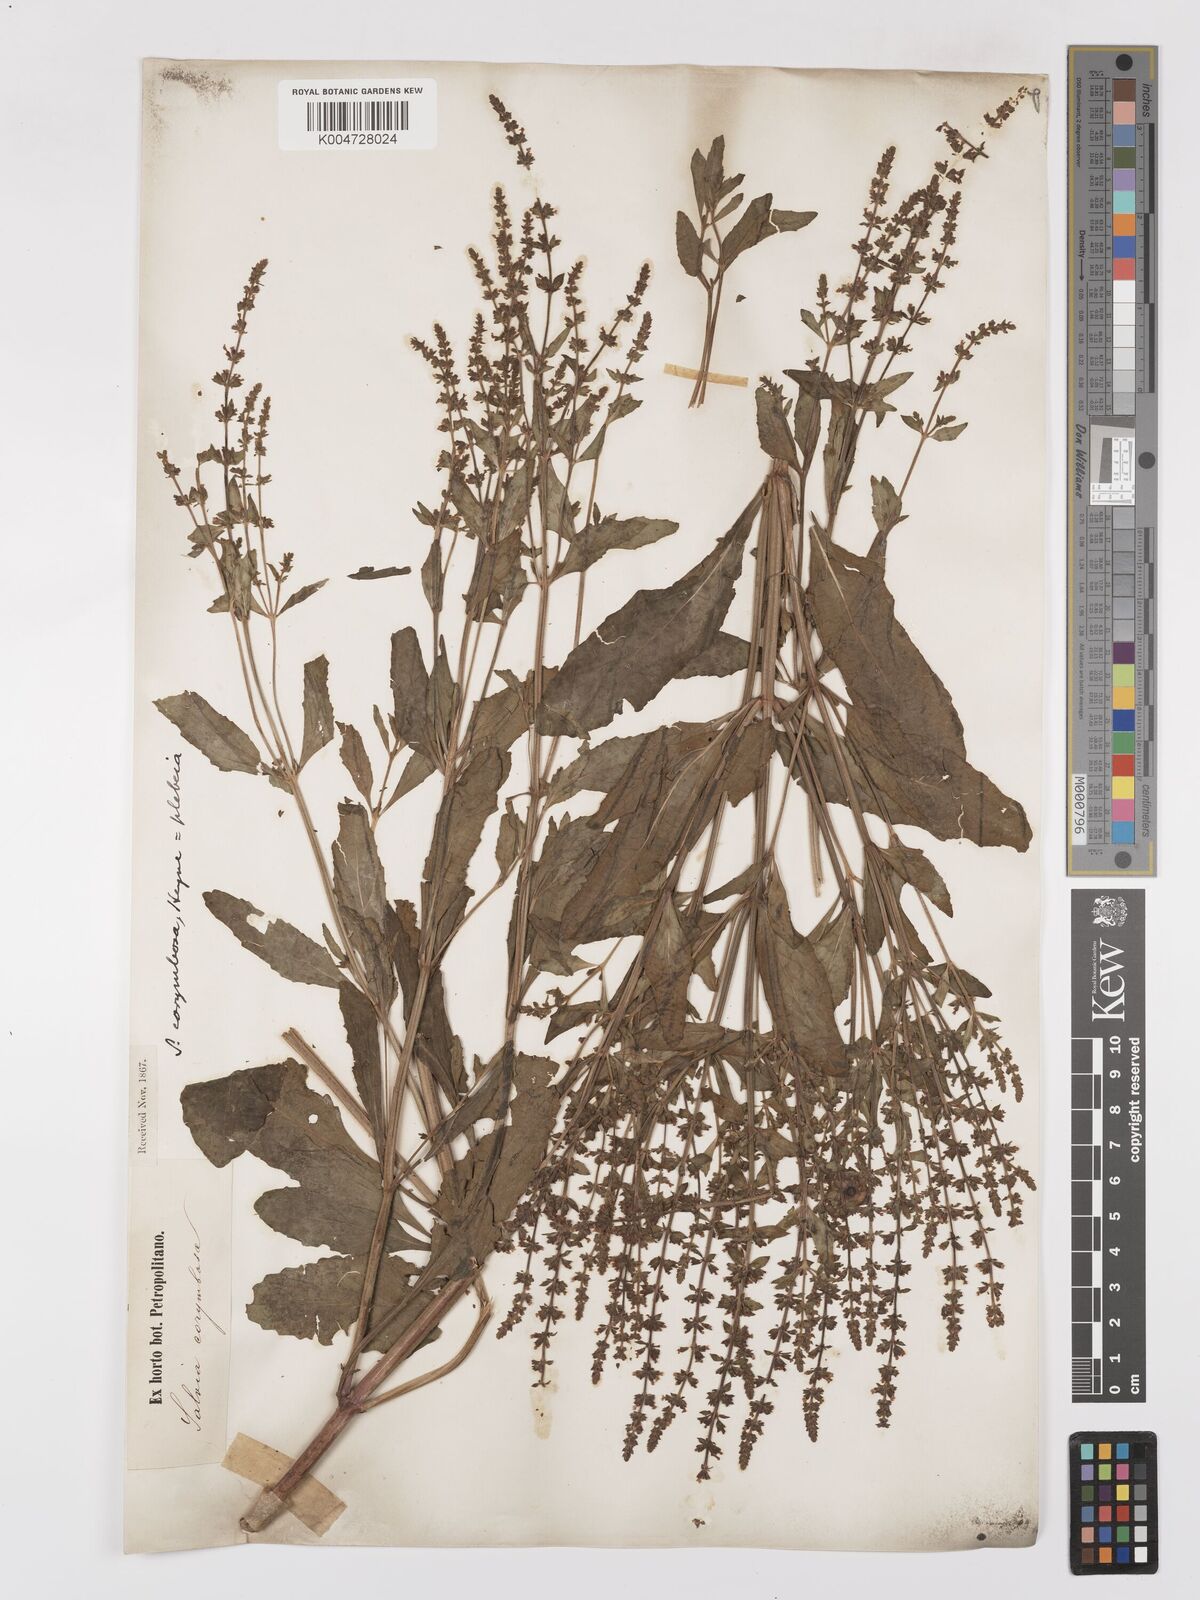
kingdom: Plantae
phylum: Tracheophyta
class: Magnoliopsida
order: Lamiales
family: Lamiaceae
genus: Salvia
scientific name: Salvia plebeia
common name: Australian sage
